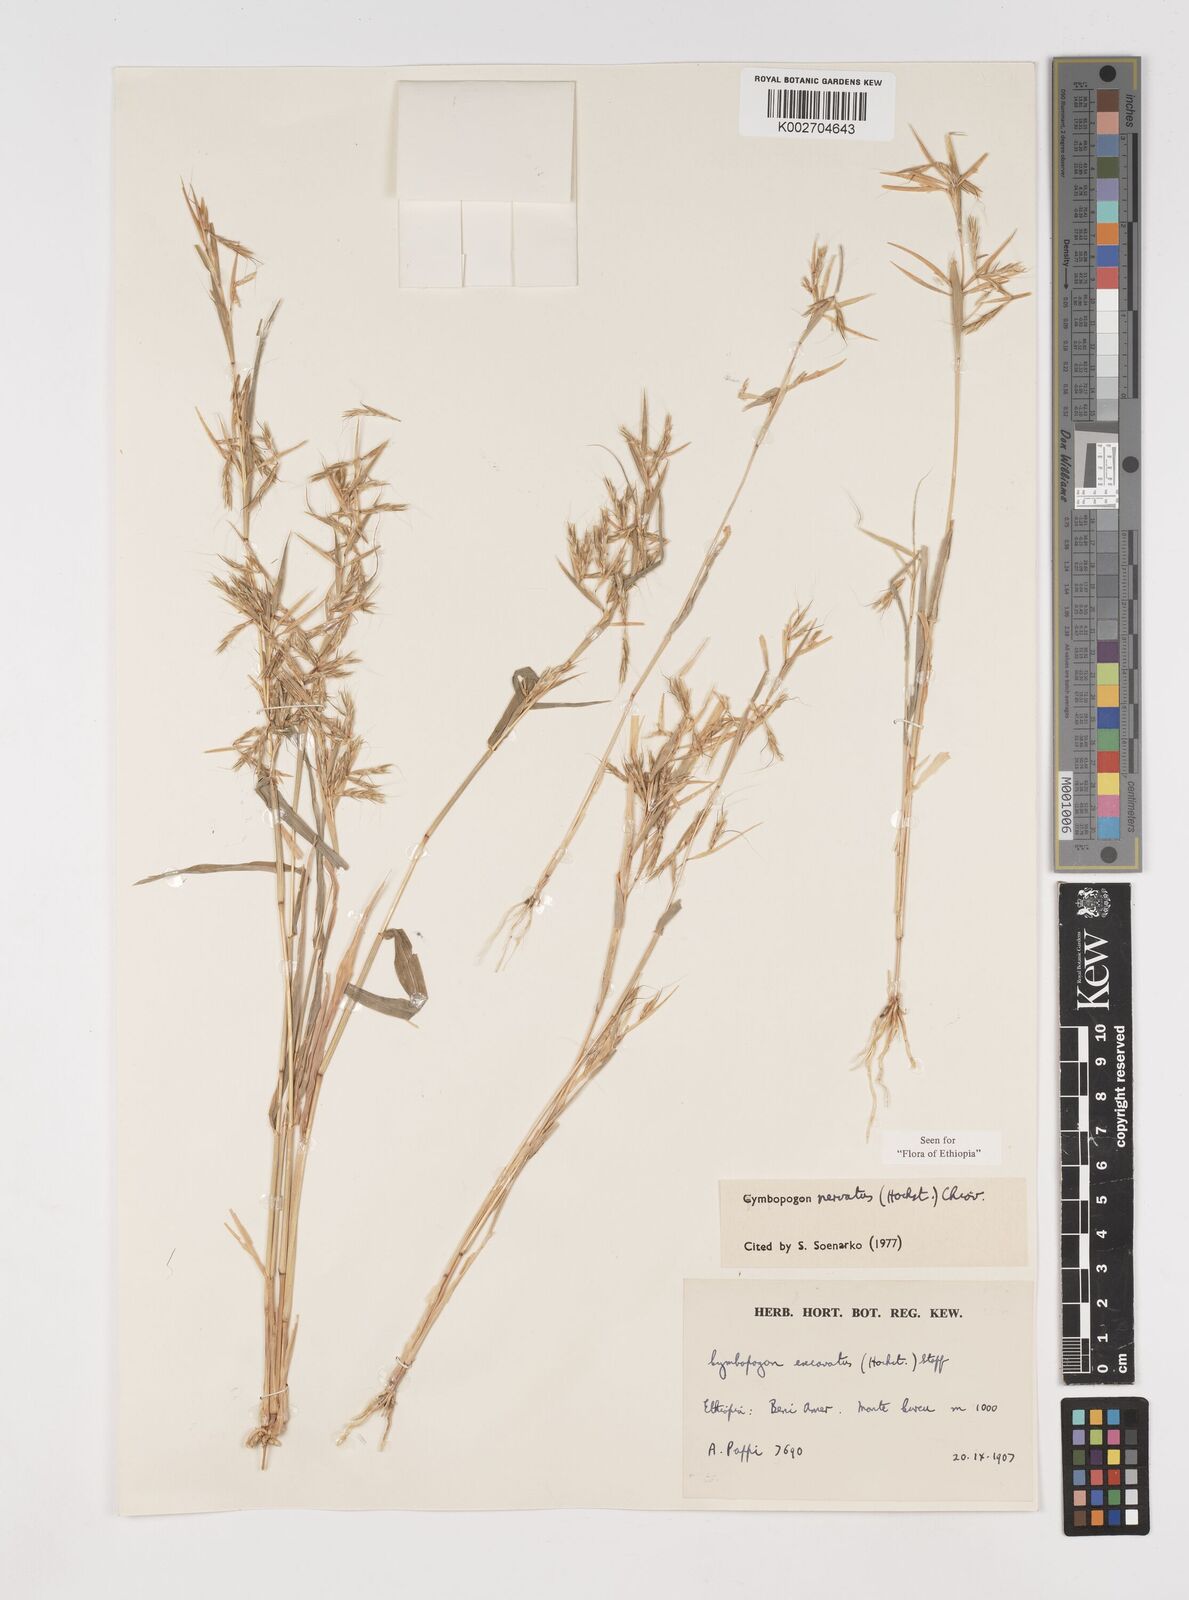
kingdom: Plantae
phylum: Tracheophyta
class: Liliopsida
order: Poales
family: Poaceae
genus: Cymbopogon
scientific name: Cymbopogon nervatus
